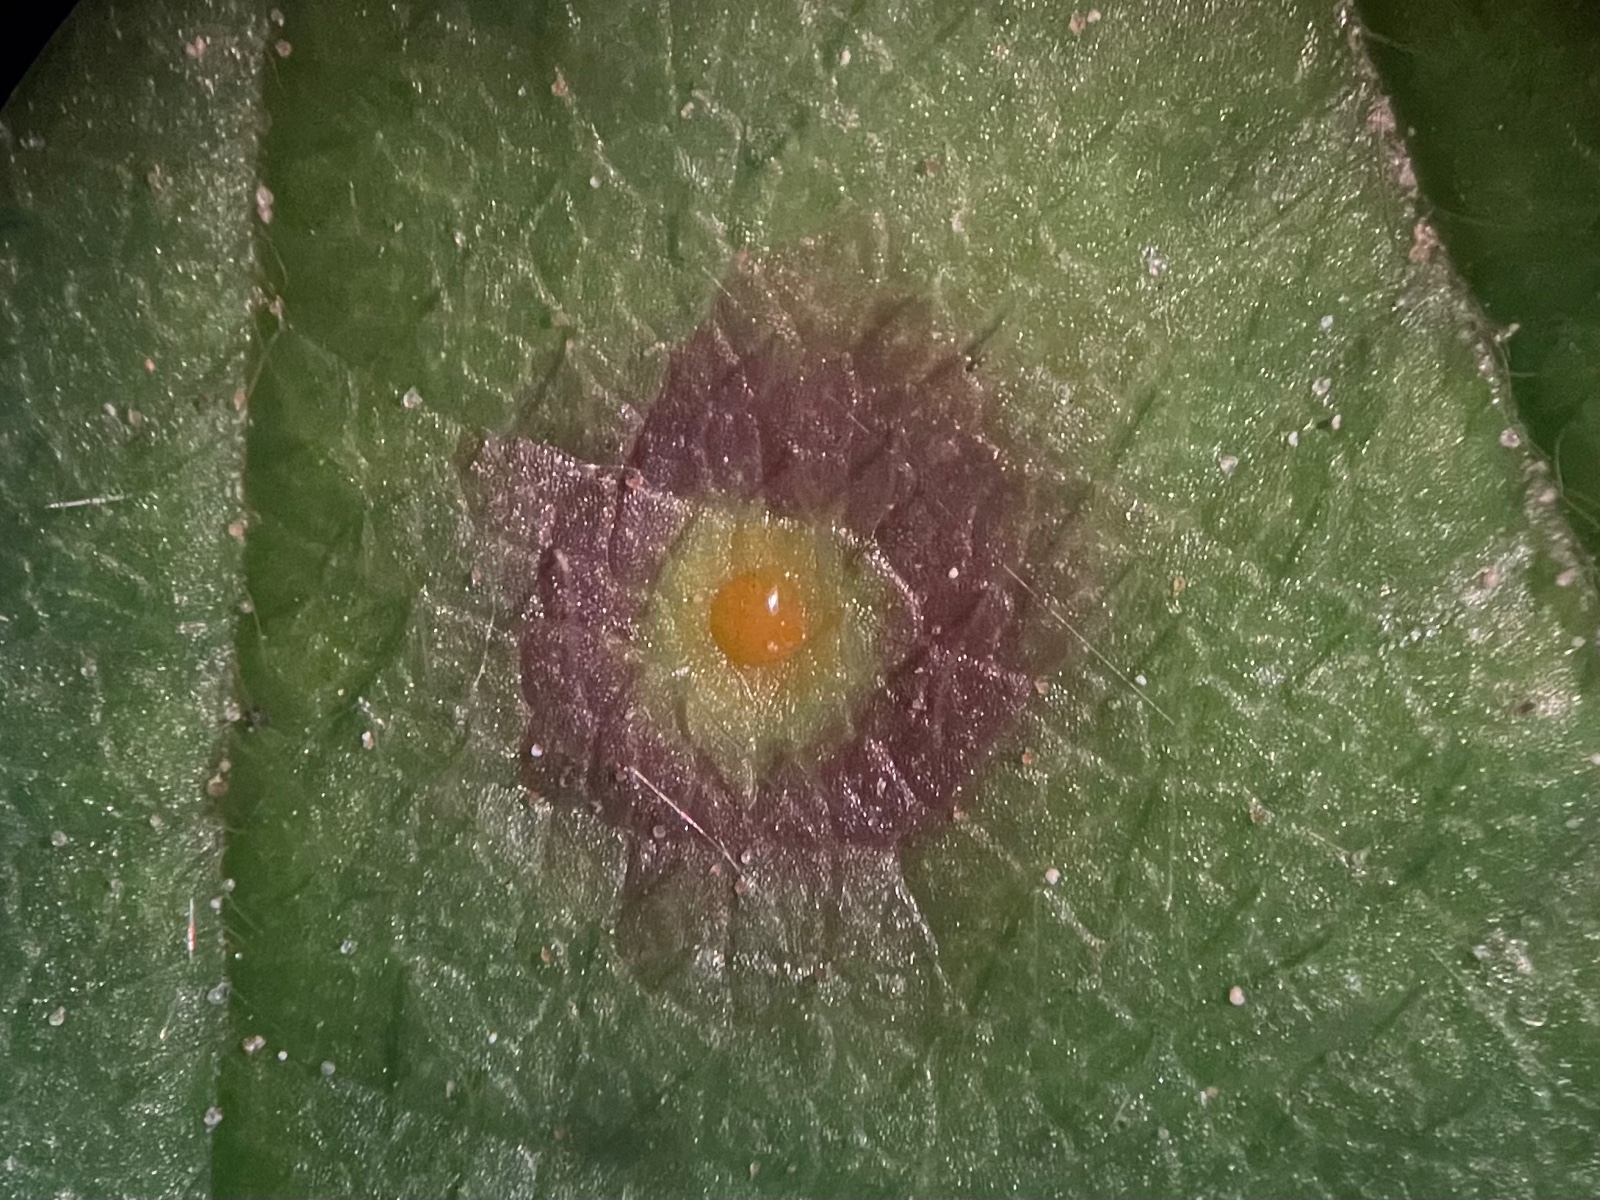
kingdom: Fungi
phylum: Basidiomycota
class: Pucciniomycetes
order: Pucciniales
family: Phragmidiaceae
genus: Phragmidium
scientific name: Phragmidium
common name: flercellerust
